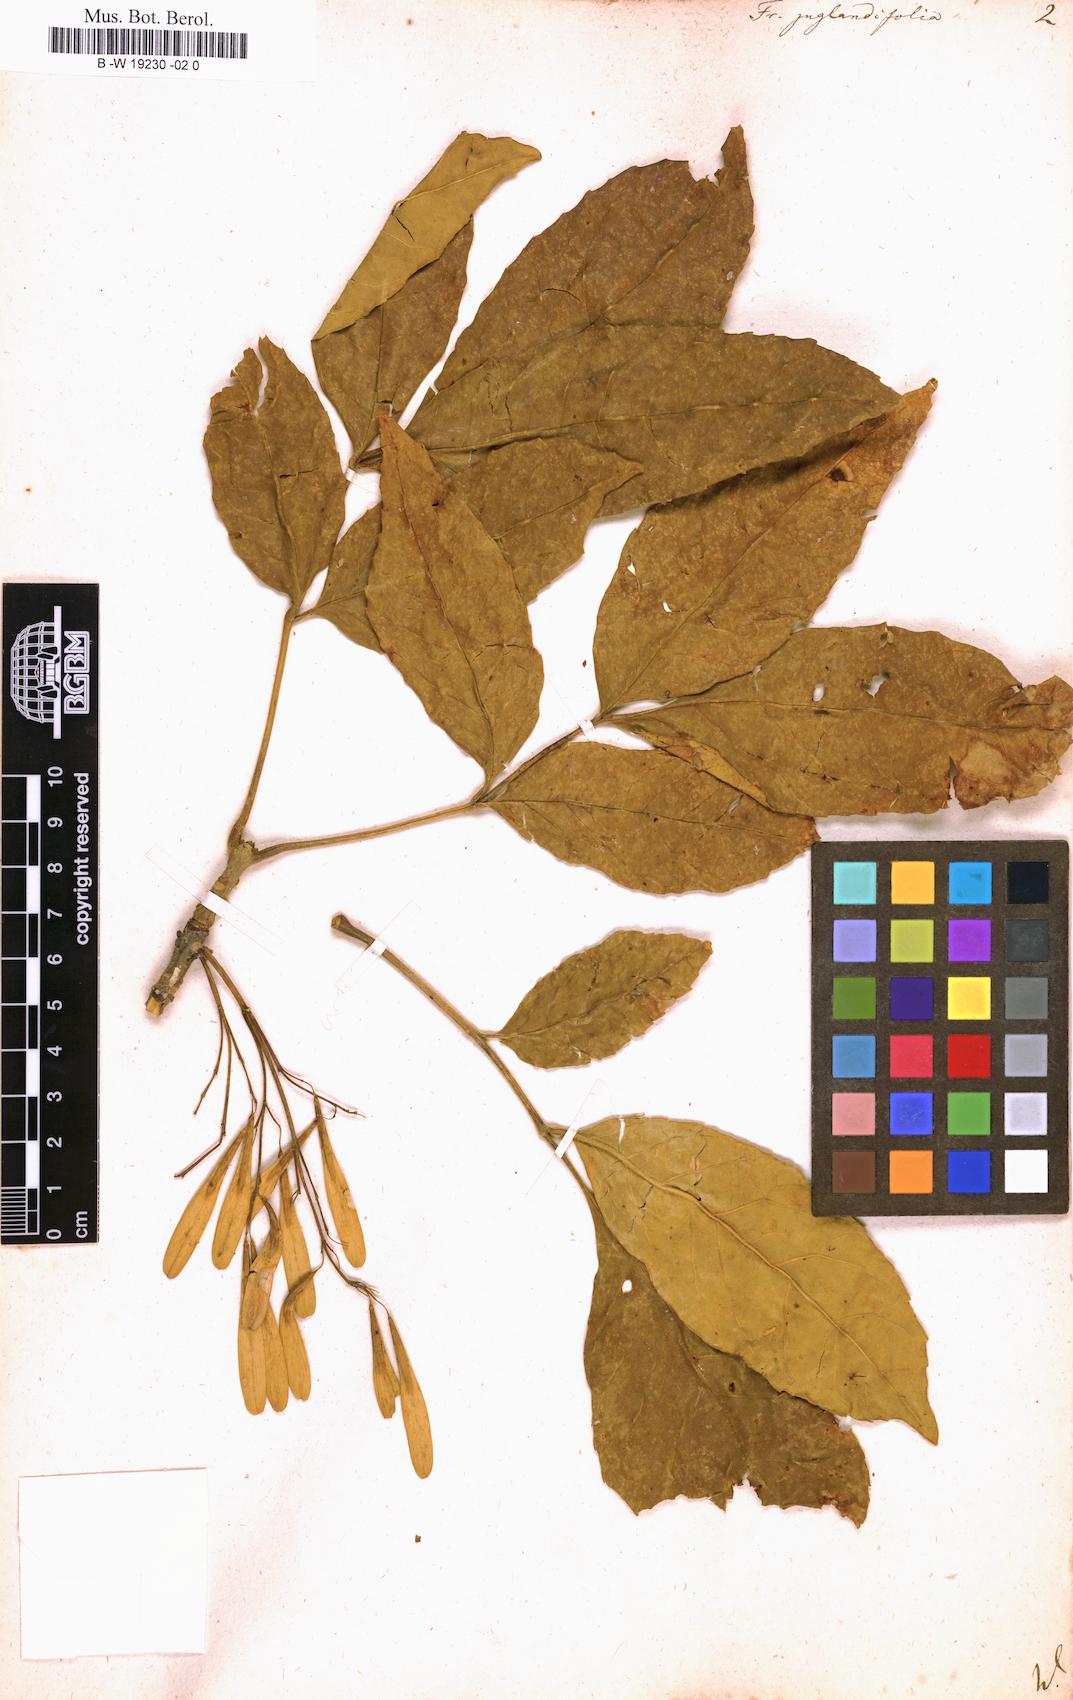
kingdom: Plantae
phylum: Tracheophyta
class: Magnoliopsida
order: Lamiales
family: Oleaceae
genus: Fraxinus
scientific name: Fraxinus americana
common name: White ash
